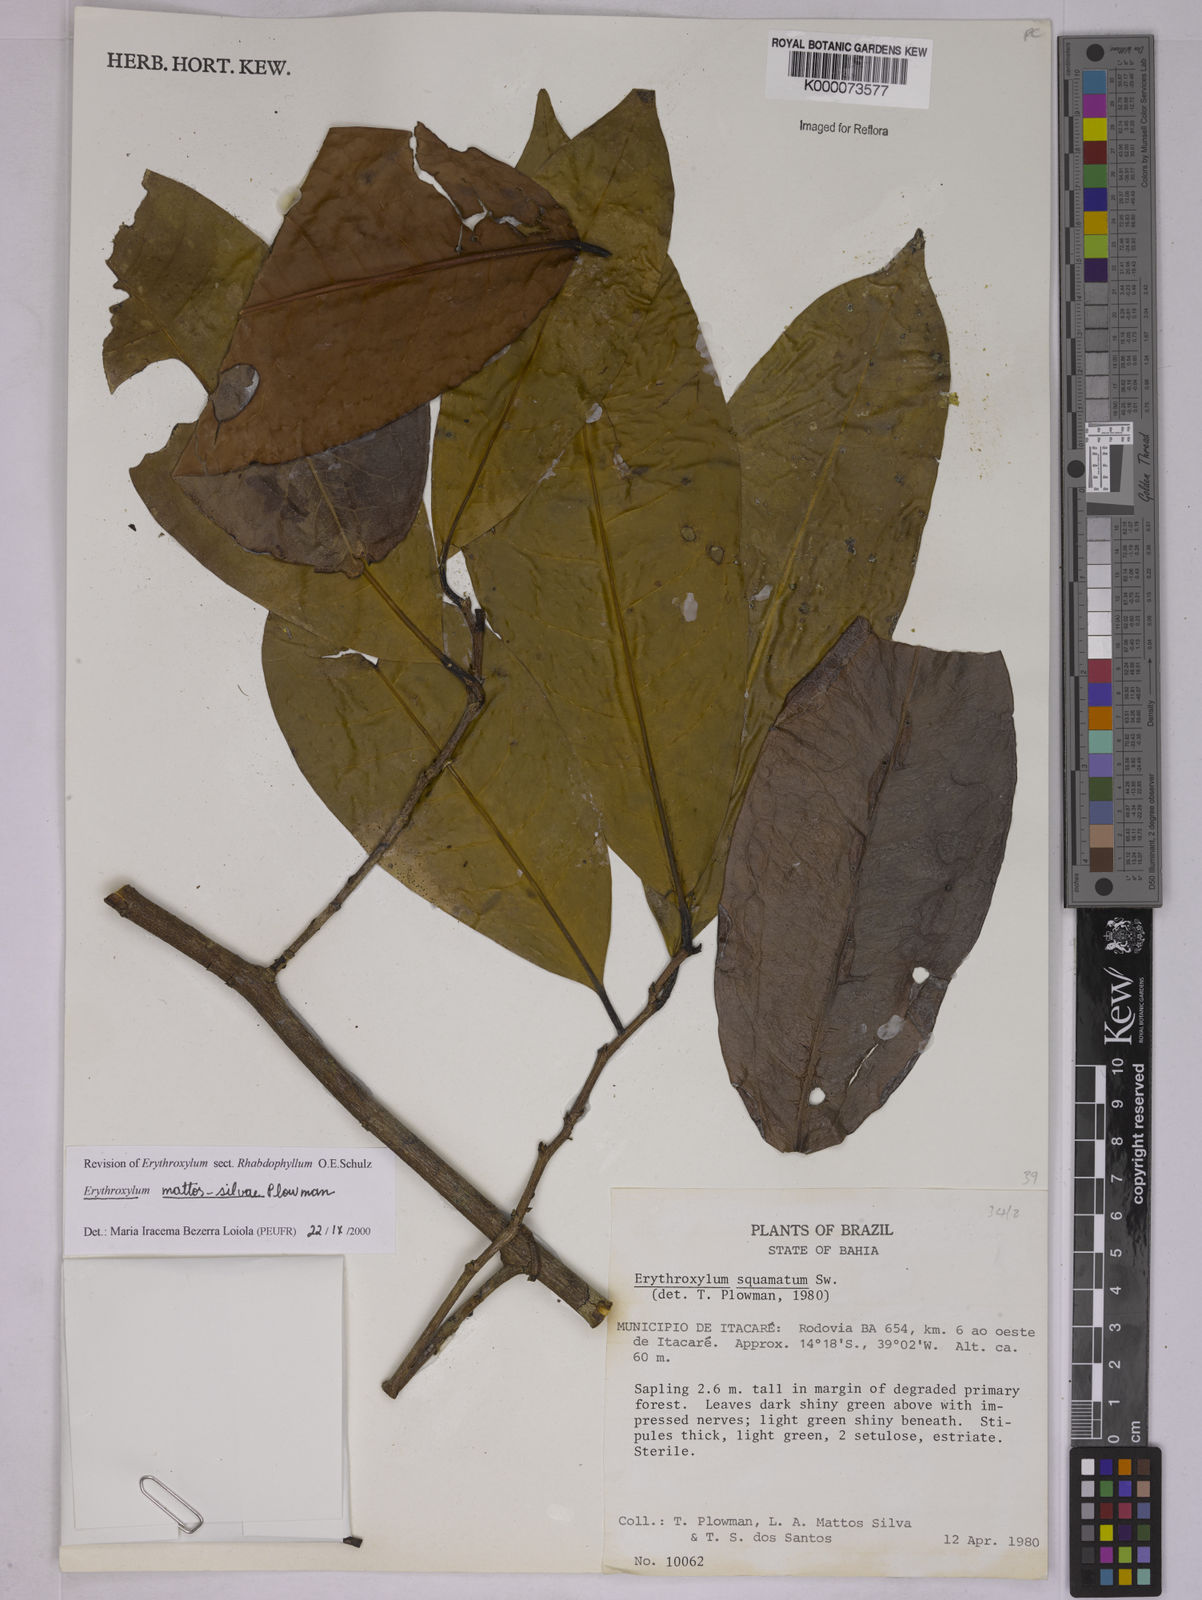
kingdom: Plantae
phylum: Tracheophyta
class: Magnoliopsida
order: Malpighiales
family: Erythroxylaceae
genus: Erythroxylum
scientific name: Erythroxylum mattos-silvae
